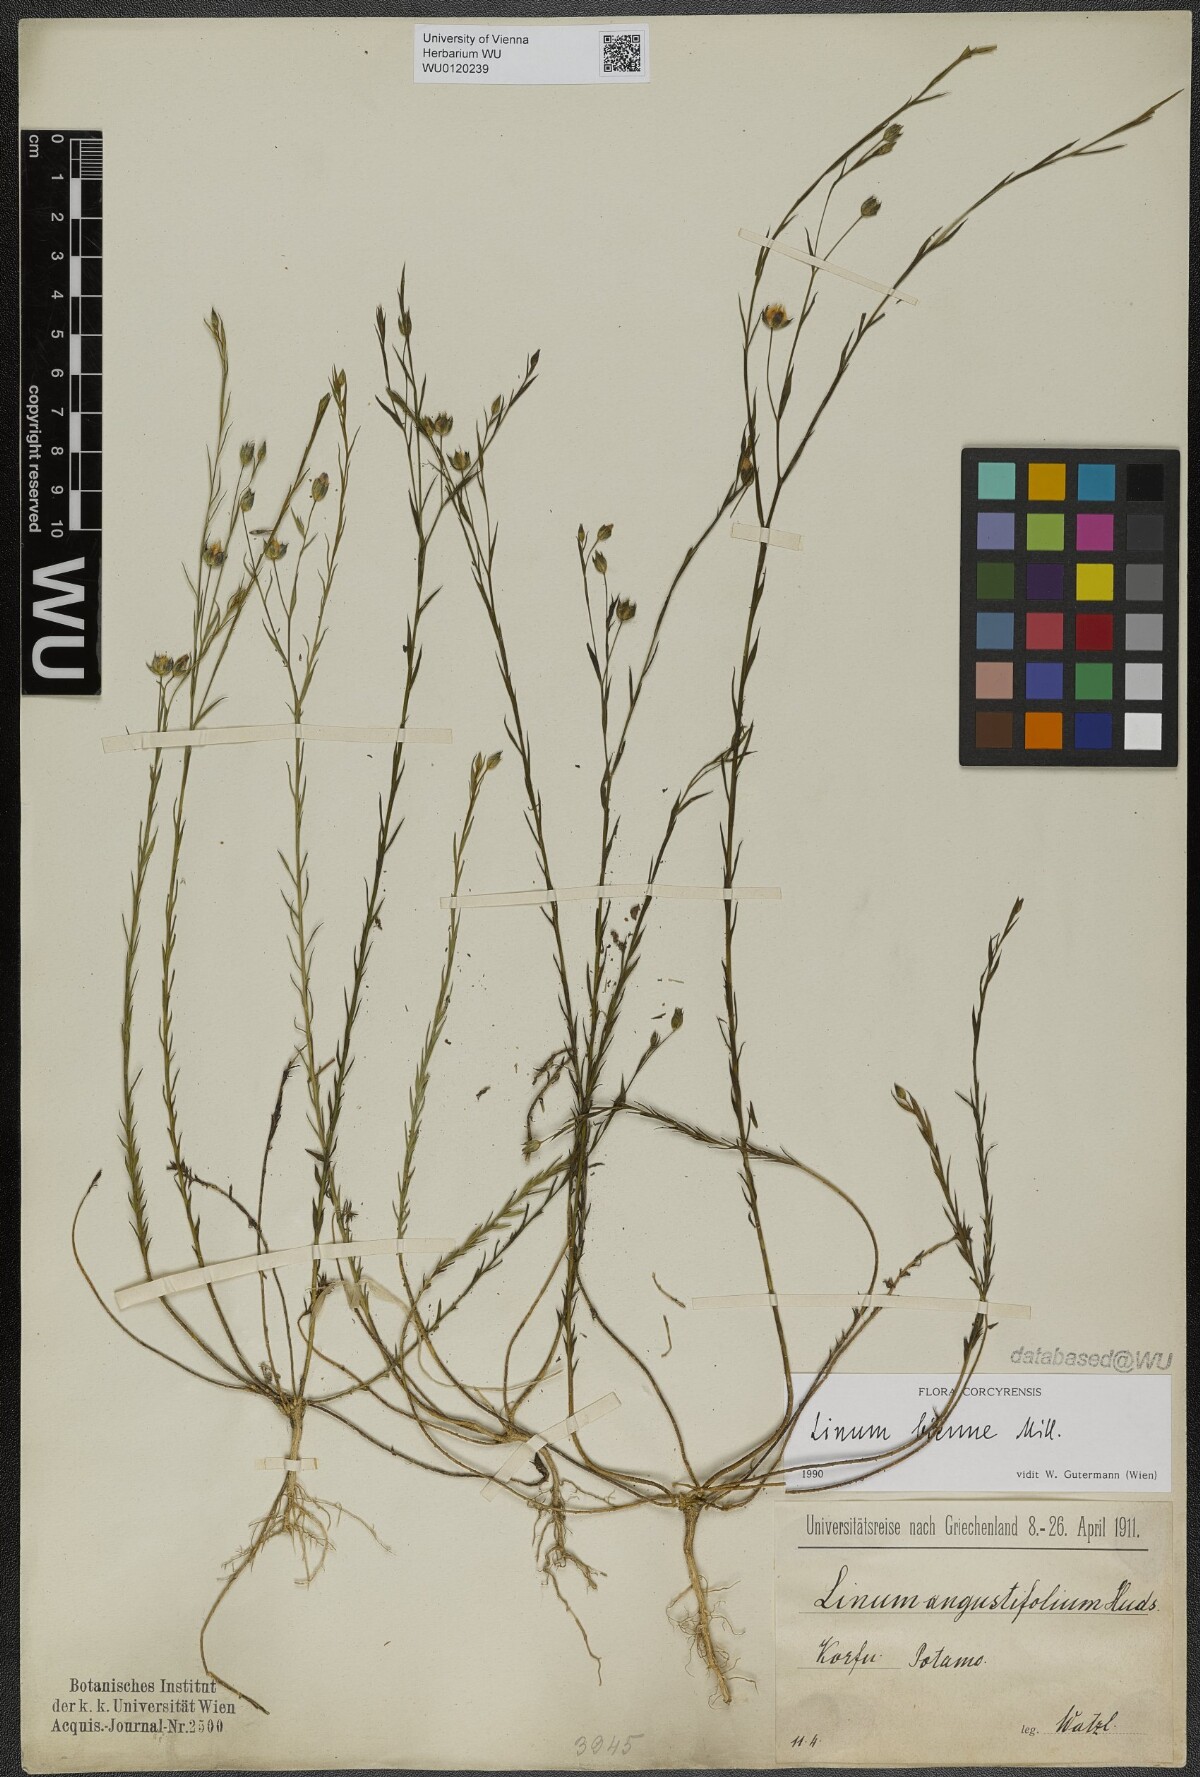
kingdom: Plantae
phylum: Tracheophyta
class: Magnoliopsida
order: Malpighiales
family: Linaceae
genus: Linum
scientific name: Linum bienne
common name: Pale flax
